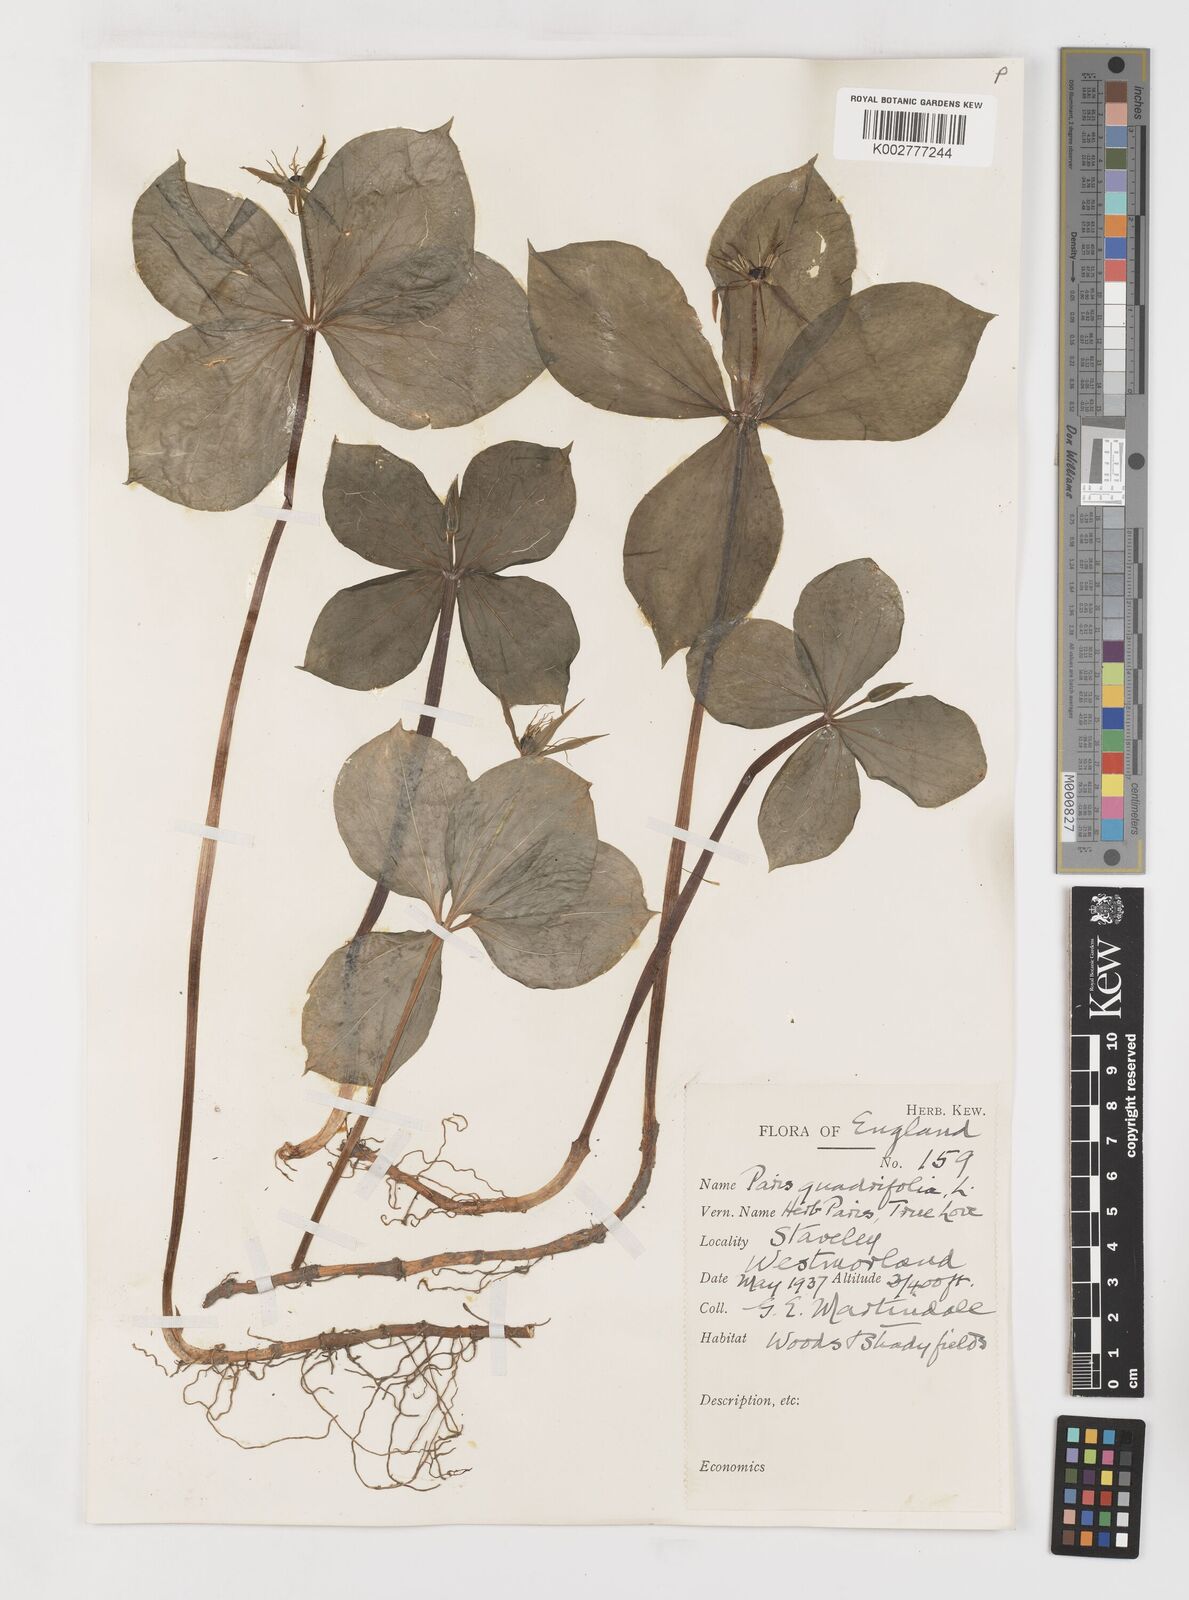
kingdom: Plantae
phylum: Tracheophyta
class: Liliopsida
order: Liliales
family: Melanthiaceae
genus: Paris
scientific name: Paris
